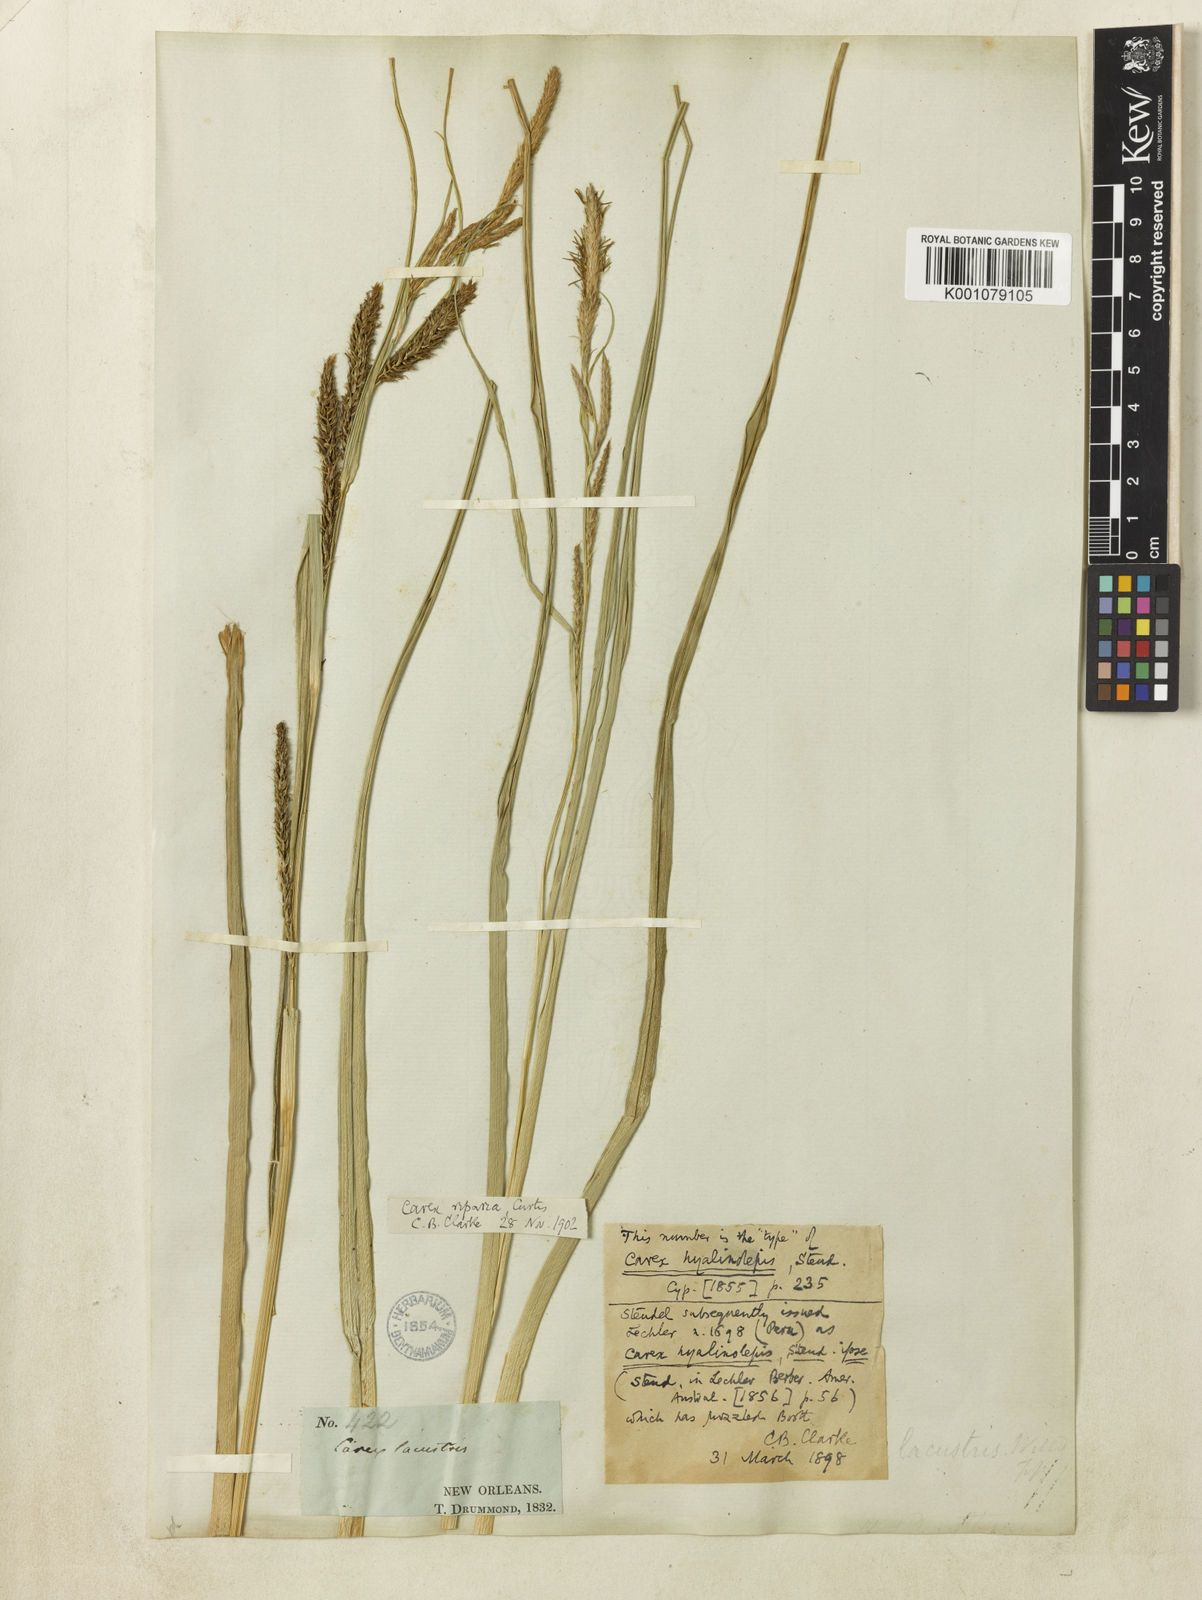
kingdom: Plantae
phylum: Tracheophyta
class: Liliopsida
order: Poales
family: Cyperaceae
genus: Carex
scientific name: Carex hyalinolepis
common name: Shoreline sedge
